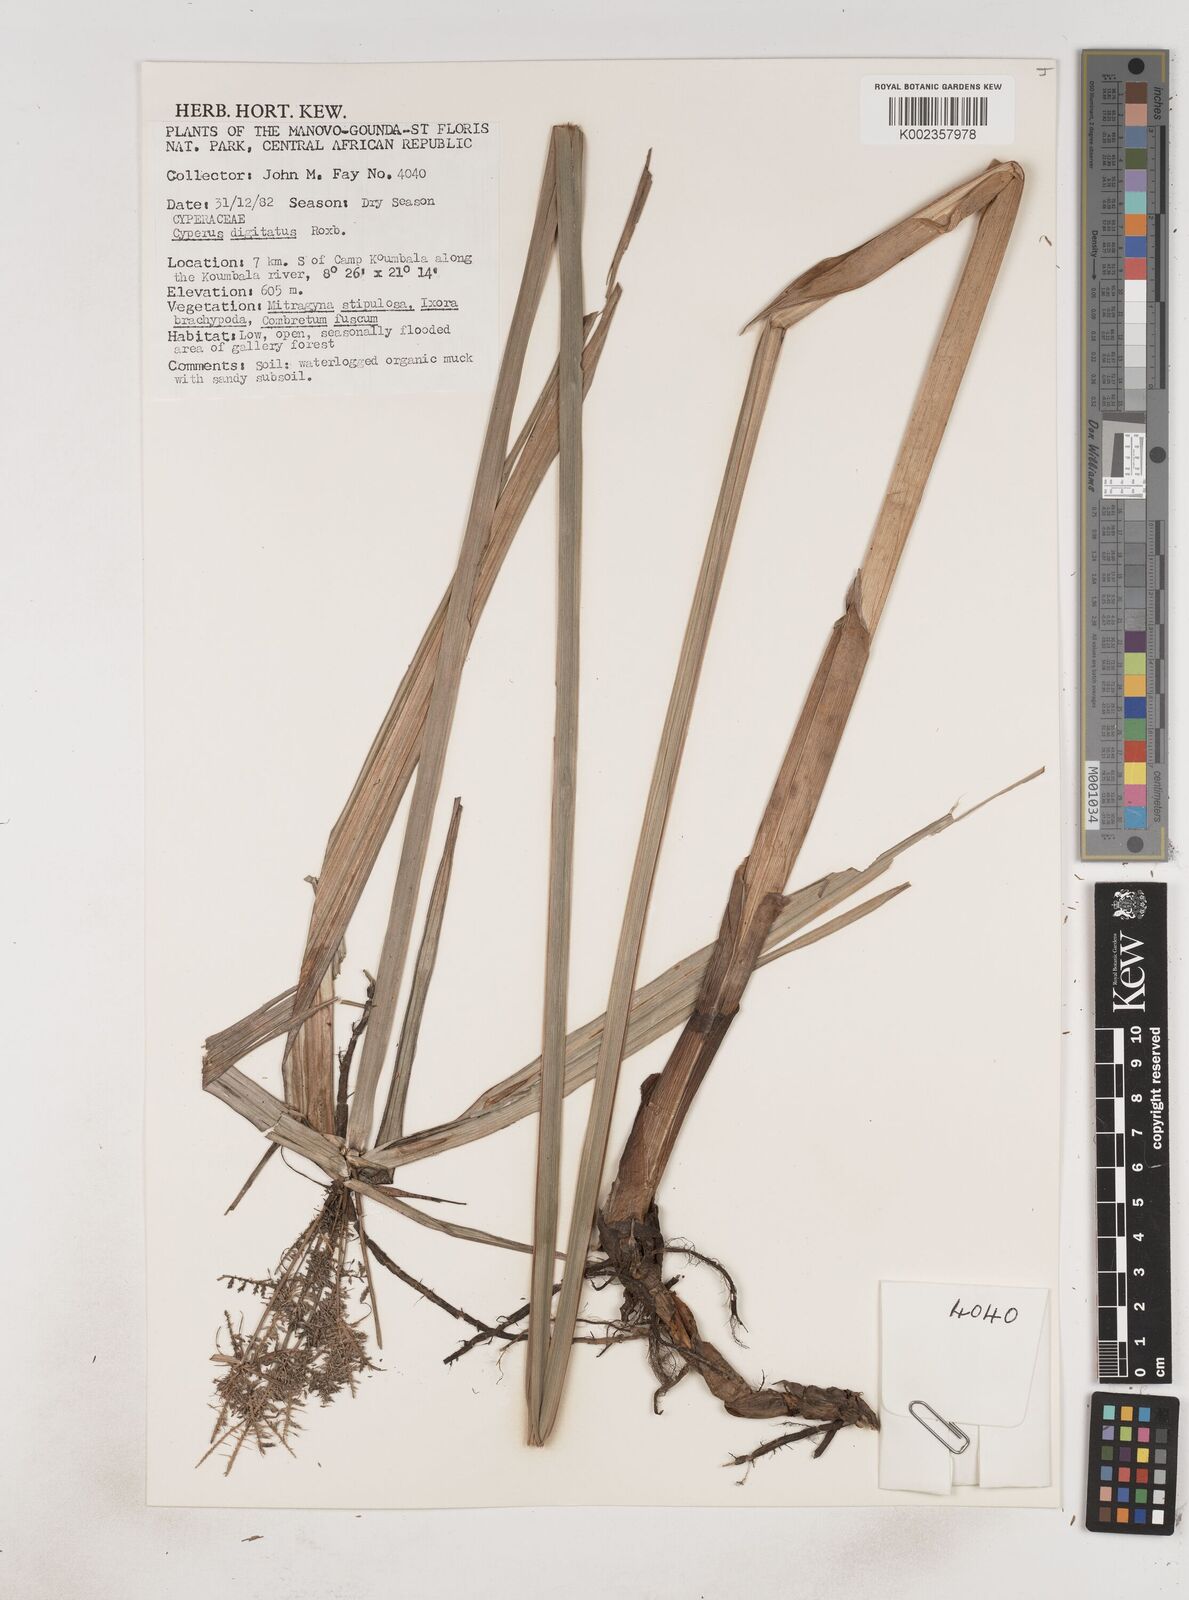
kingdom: Plantae
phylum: Tracheophyta
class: Liliopsida
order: Poales
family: Cyperaceae
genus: Cyperus
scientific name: Cyperus digitatus
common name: Finger flatsedge
